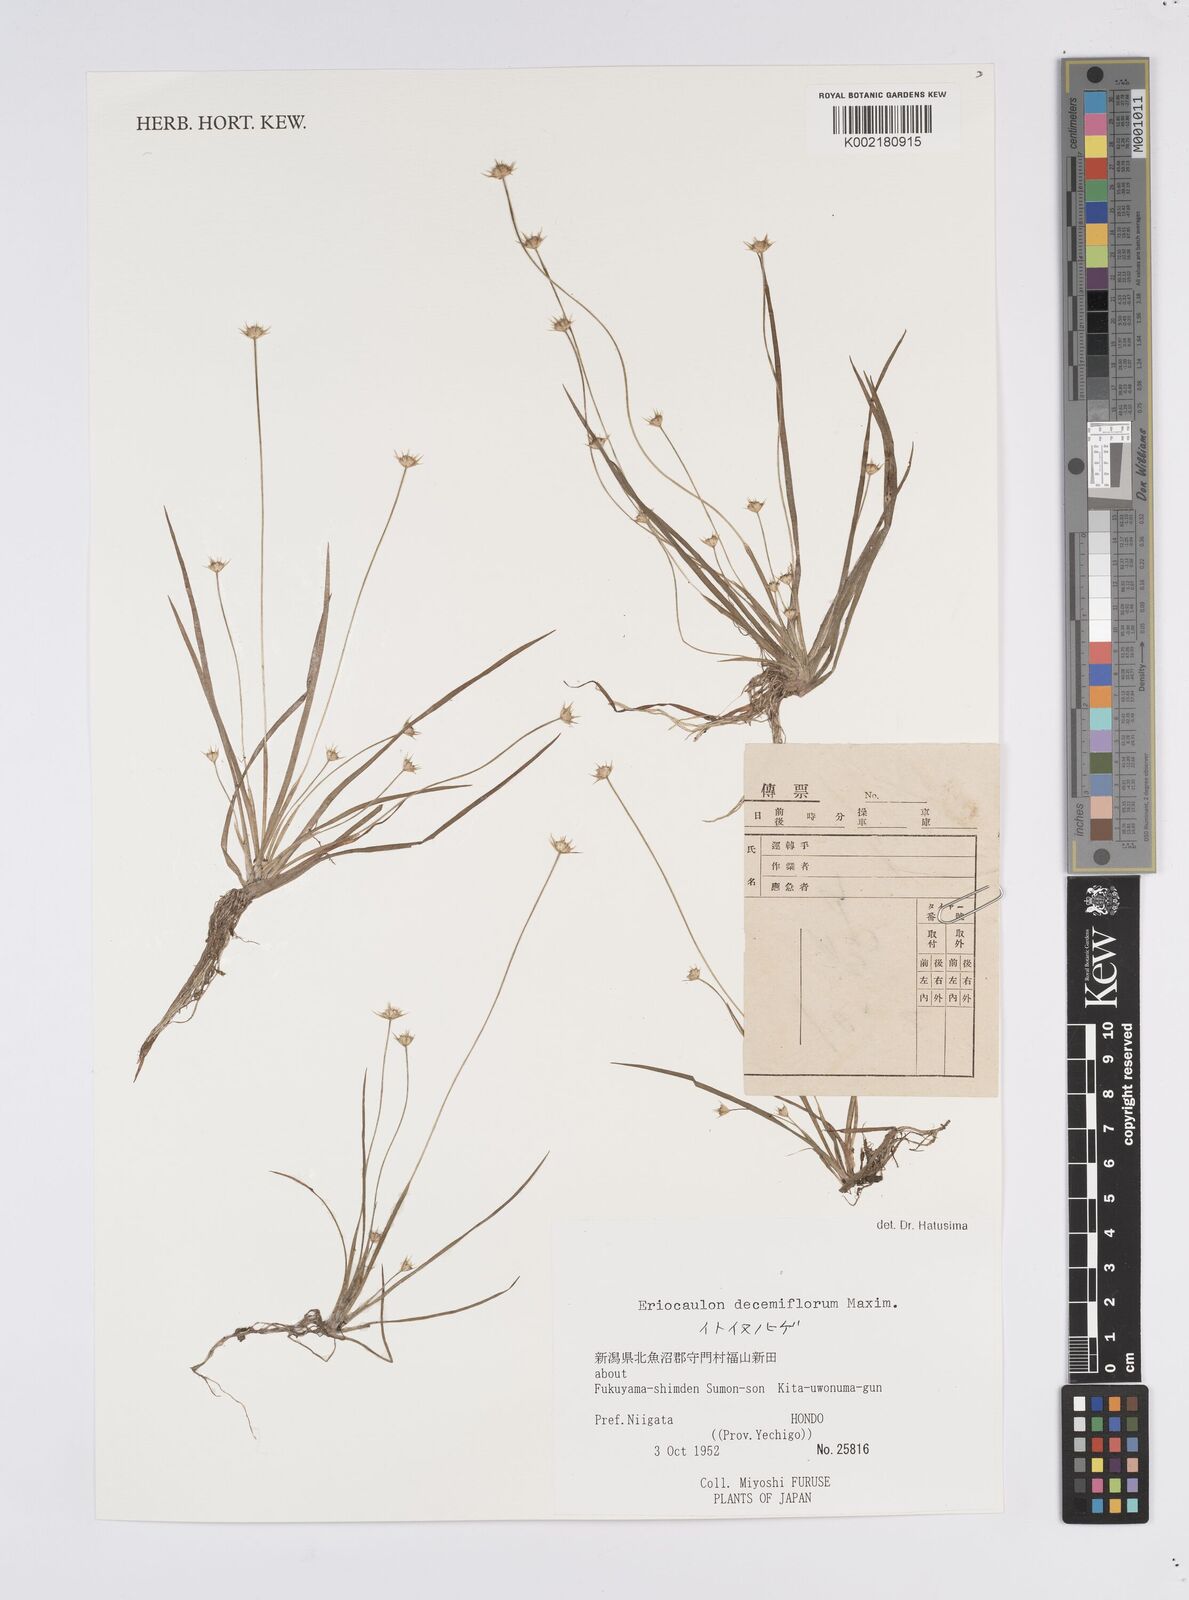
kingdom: Plantae
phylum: Tracheophyta
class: Liliopsida
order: Poales
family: Eriocaulaceae
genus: Eriocaulon
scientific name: Eriocaulon decemflorum
